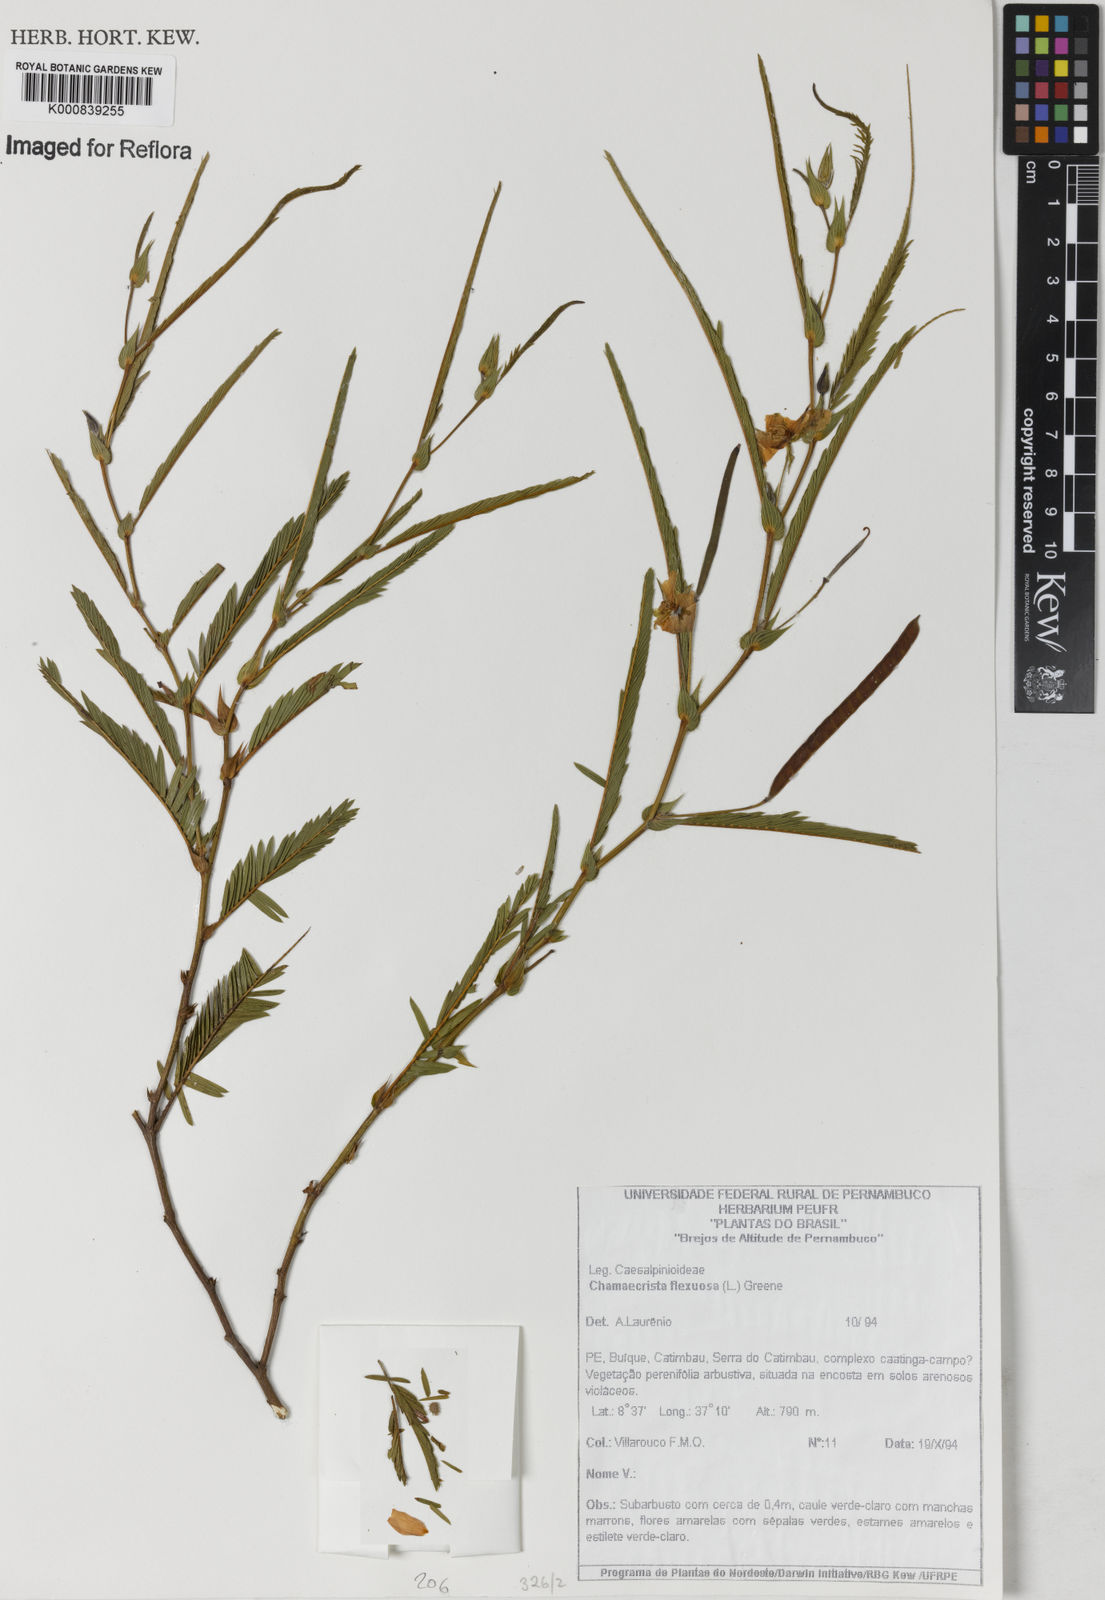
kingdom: Plantae
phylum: Tracheophyta
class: Magnoliopsida
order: Fabales
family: Fabaceae
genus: Chamaecrista
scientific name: Chamaecrista flexuosa
